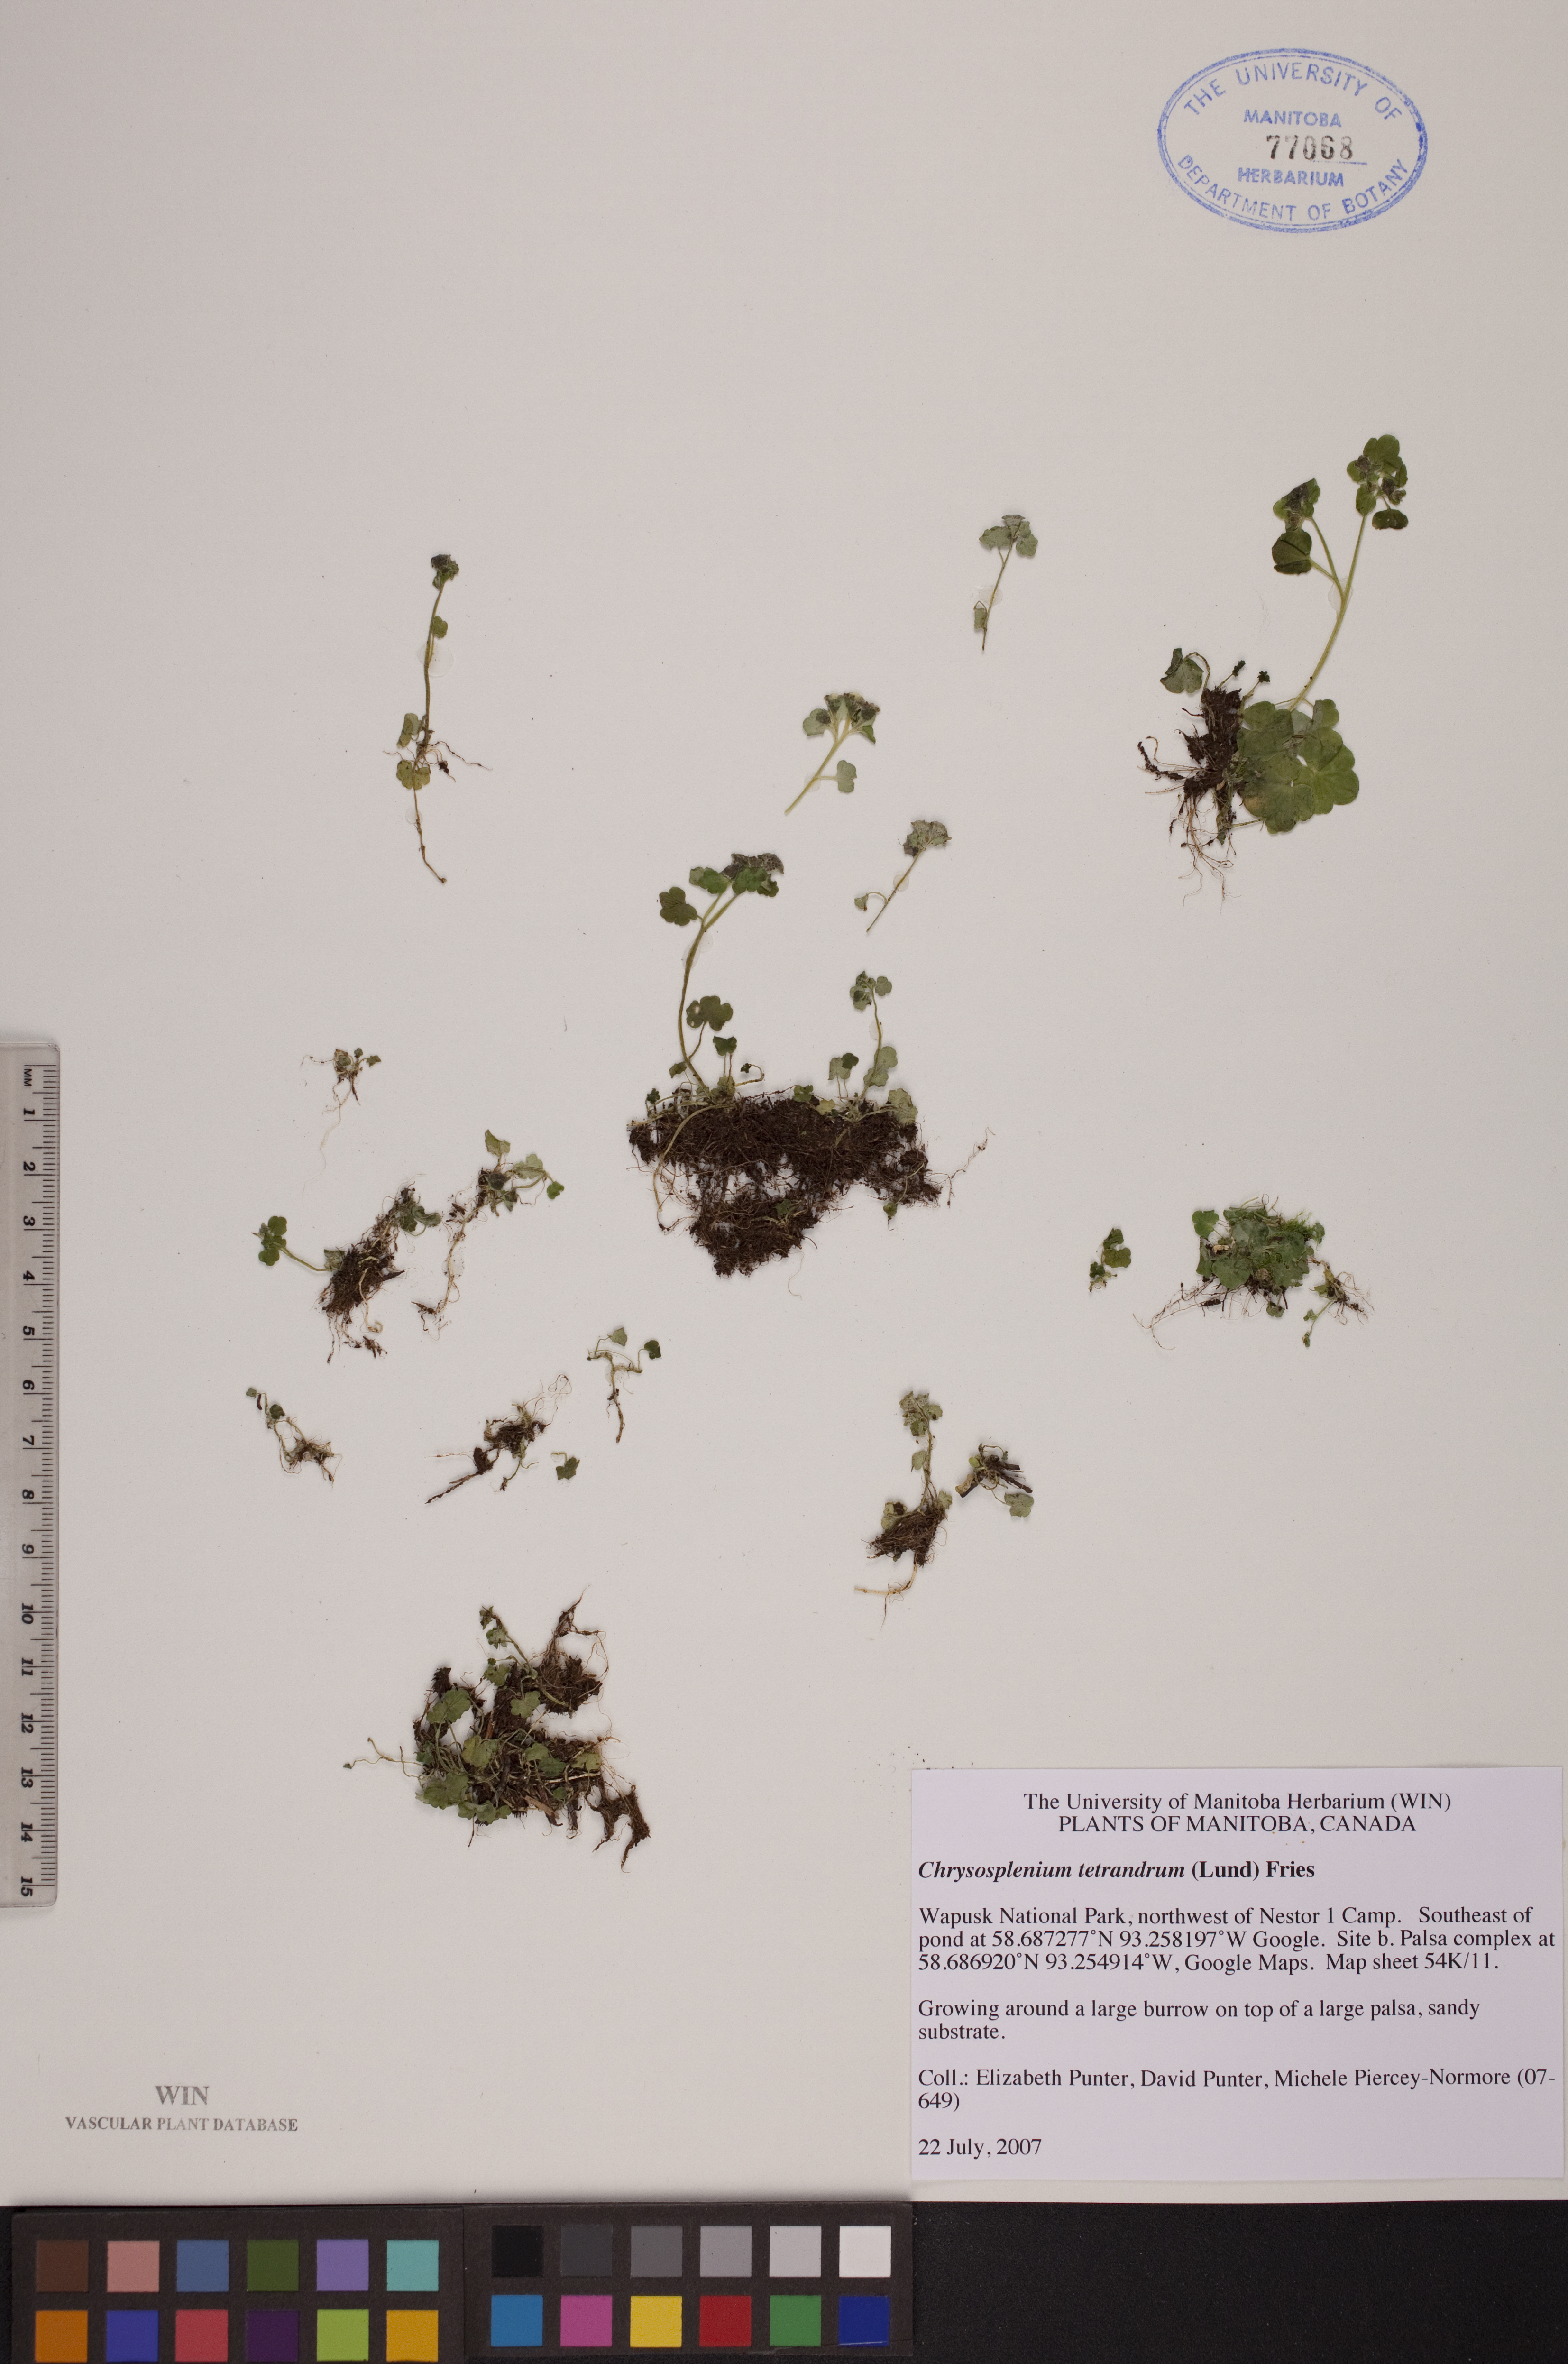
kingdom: Plantae
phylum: Tracheophyta
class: Magnoliopsida
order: Saxifragales
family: Saxifragaceae
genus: Chrysosplenium
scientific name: Chrysosplenium tetrandrum
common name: Green saxifrage
